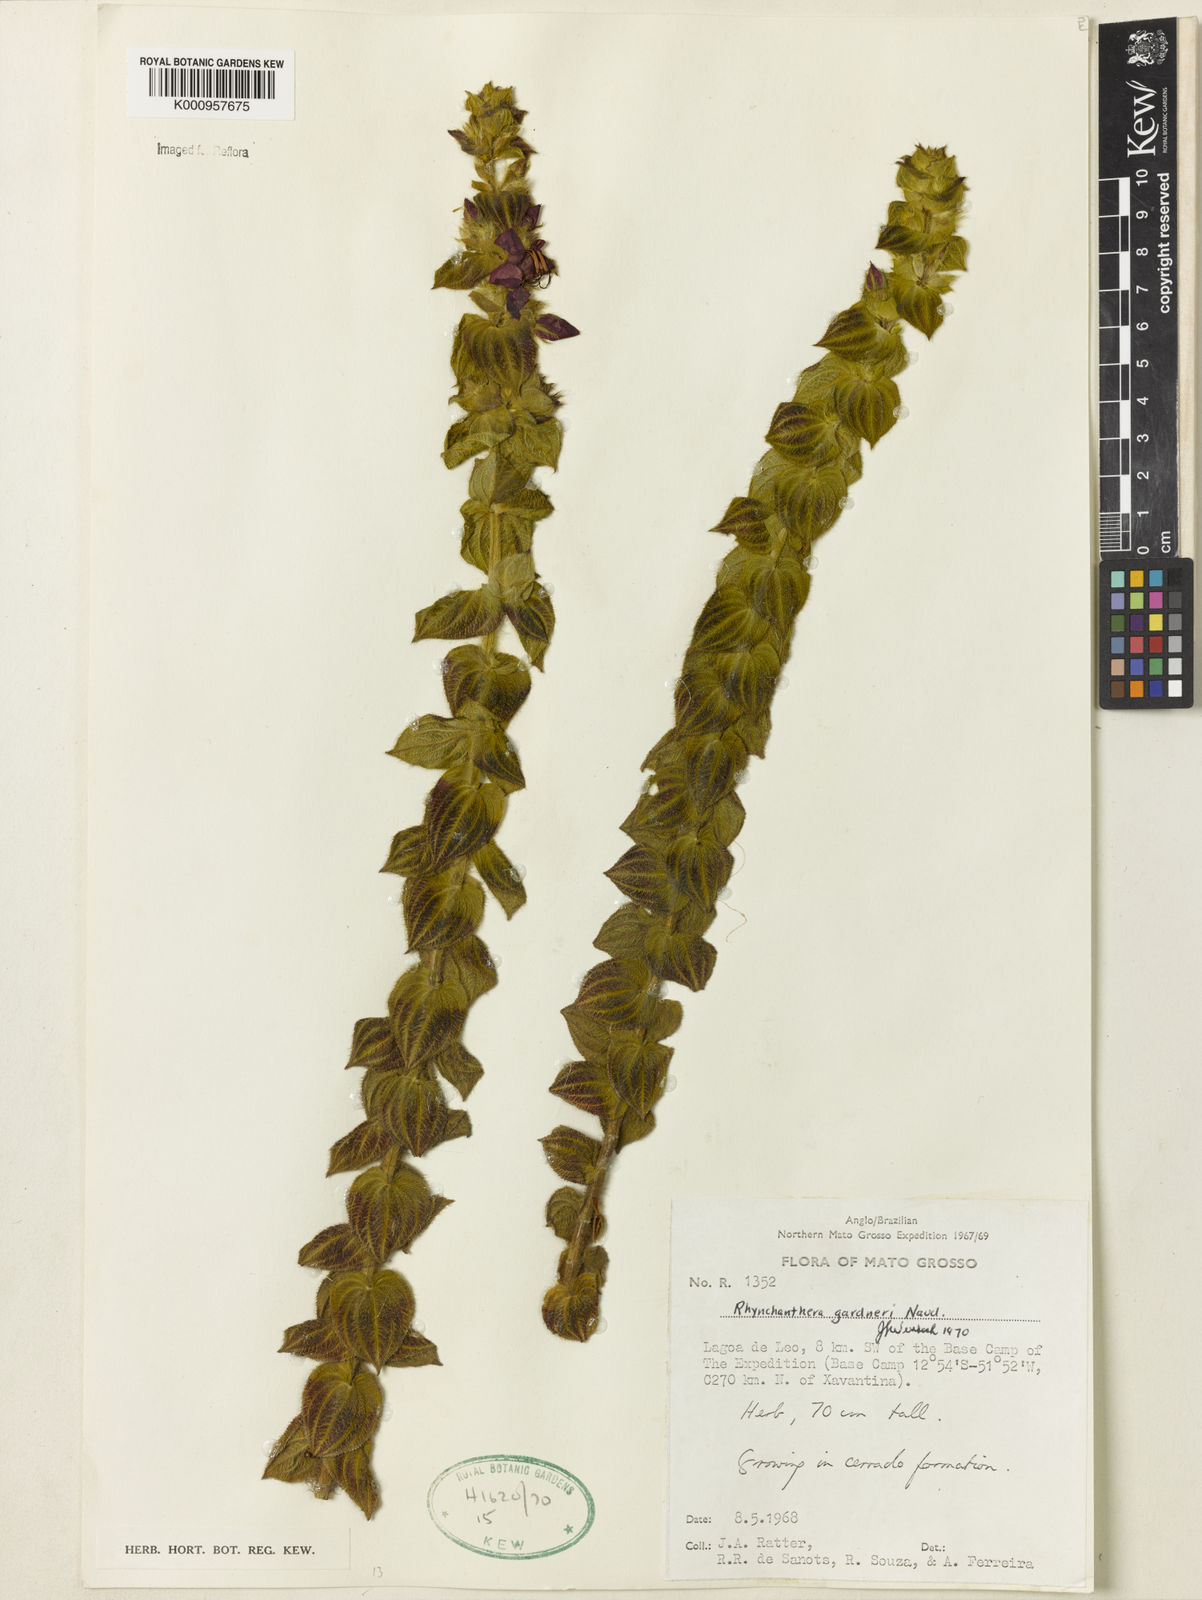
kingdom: Plantae
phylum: Tracheophyta
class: Magnoliopsida
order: Myrtales
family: Melastomataceae
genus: Rhynchanthera
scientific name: Rhynchanthera gardneri
